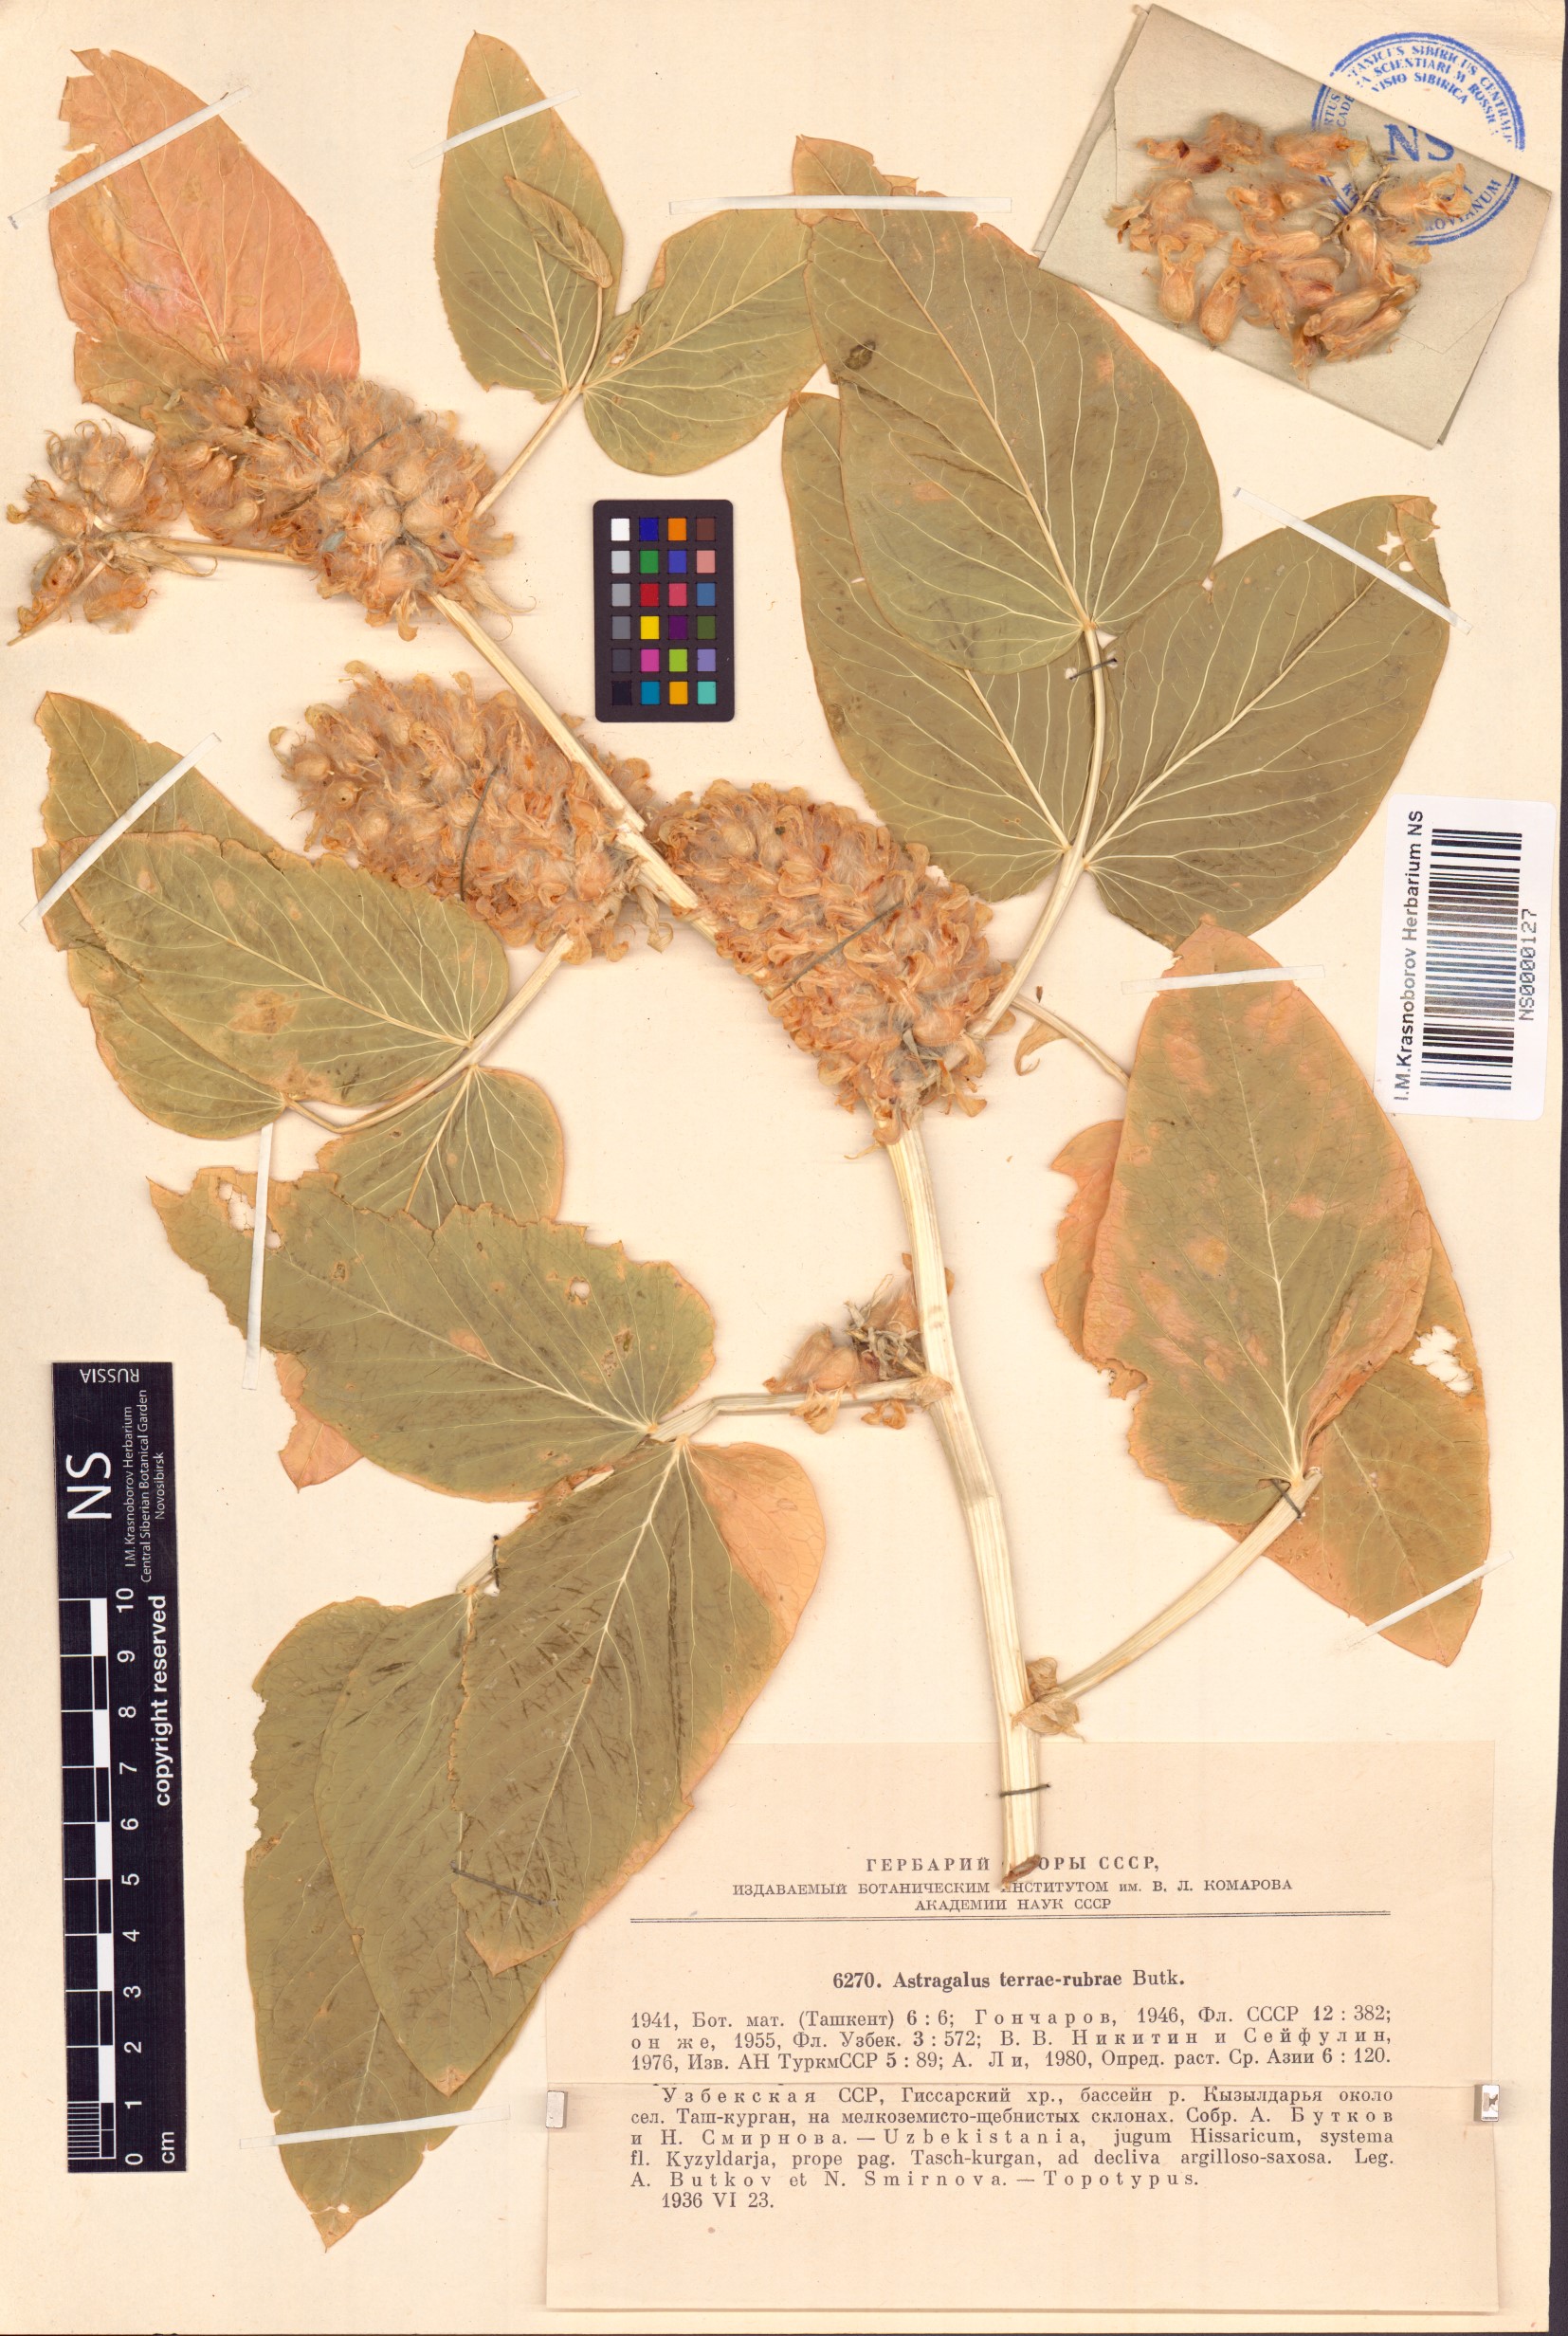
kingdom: Plantae
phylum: Tracheophyta
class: Magnoliopsida
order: Fabales
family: Fabaceae
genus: Astragalus
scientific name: Astragalus terrae-rubrae
